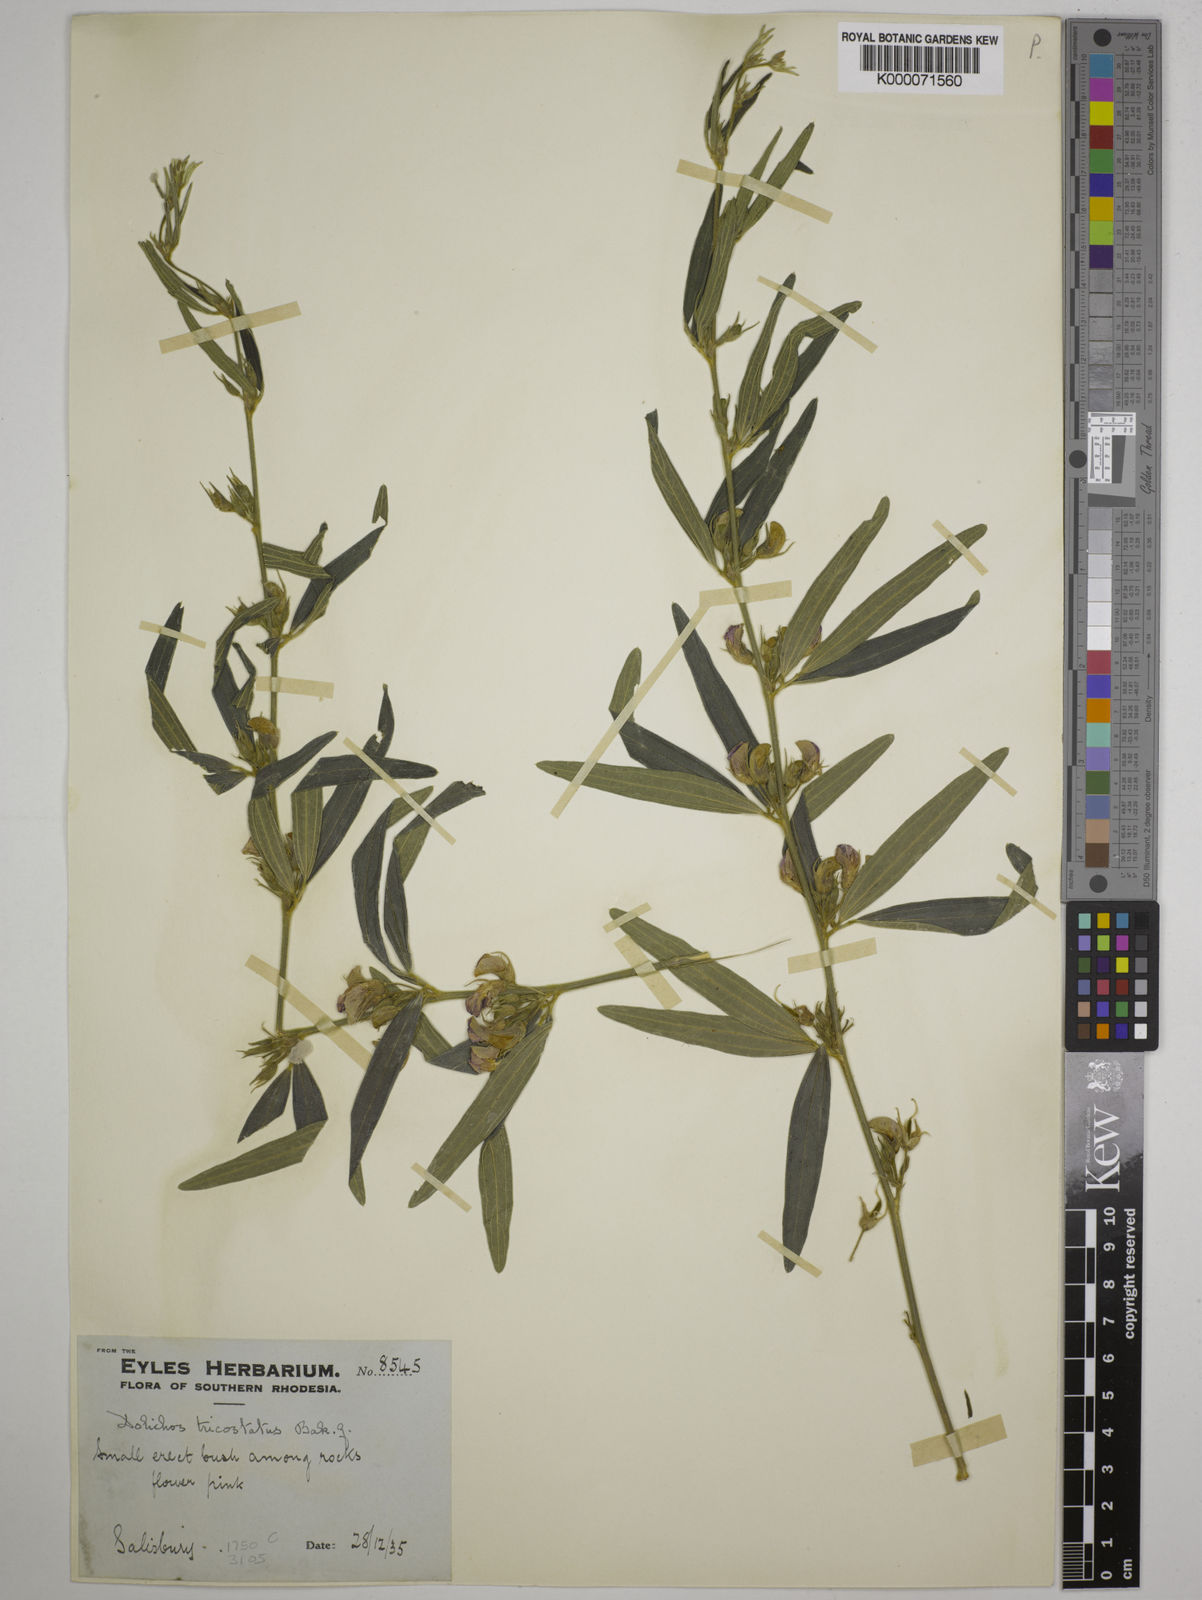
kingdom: Plantae
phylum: Tracheophyta
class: Magnoliopsida
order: Fabales
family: Fabaceae
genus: Dolichos
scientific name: Dolichos trinervatus
